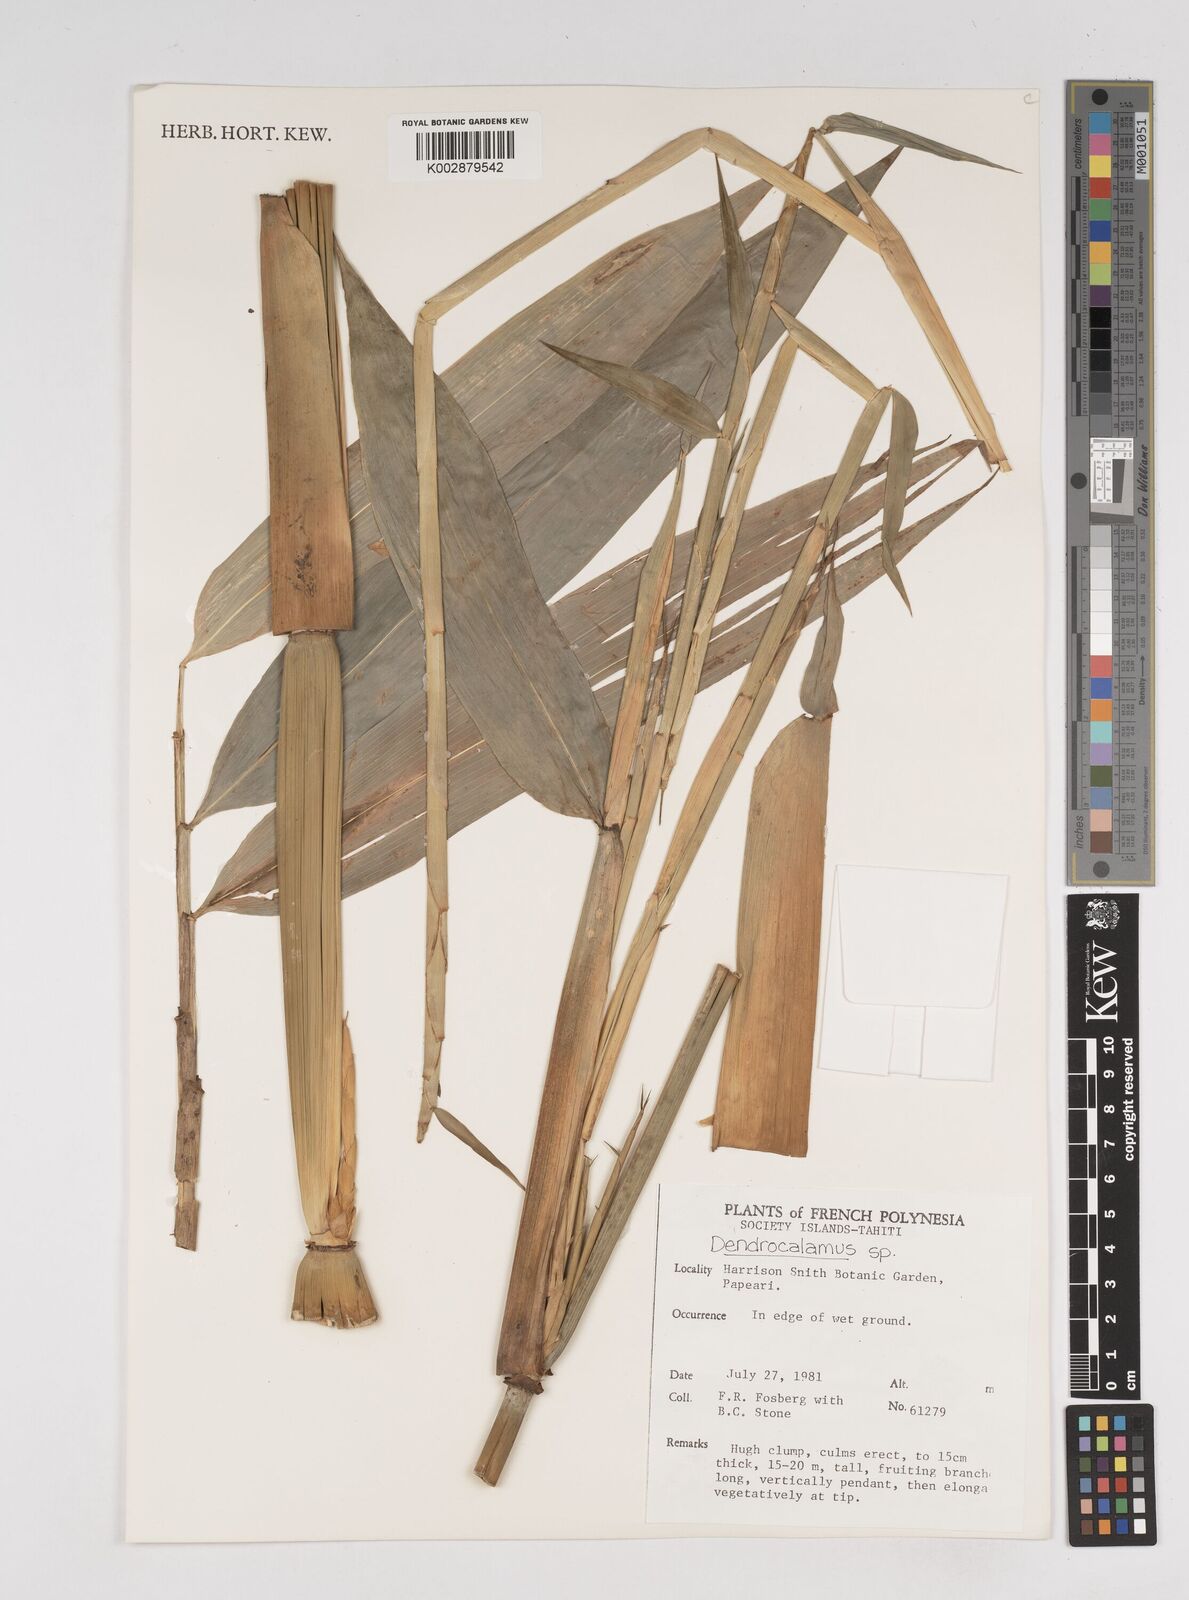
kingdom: Plantae
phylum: Tracheophyta
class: Liliopsida
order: Poales
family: Poaceae
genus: Dendrocalamus
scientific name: Dendrocalamus
